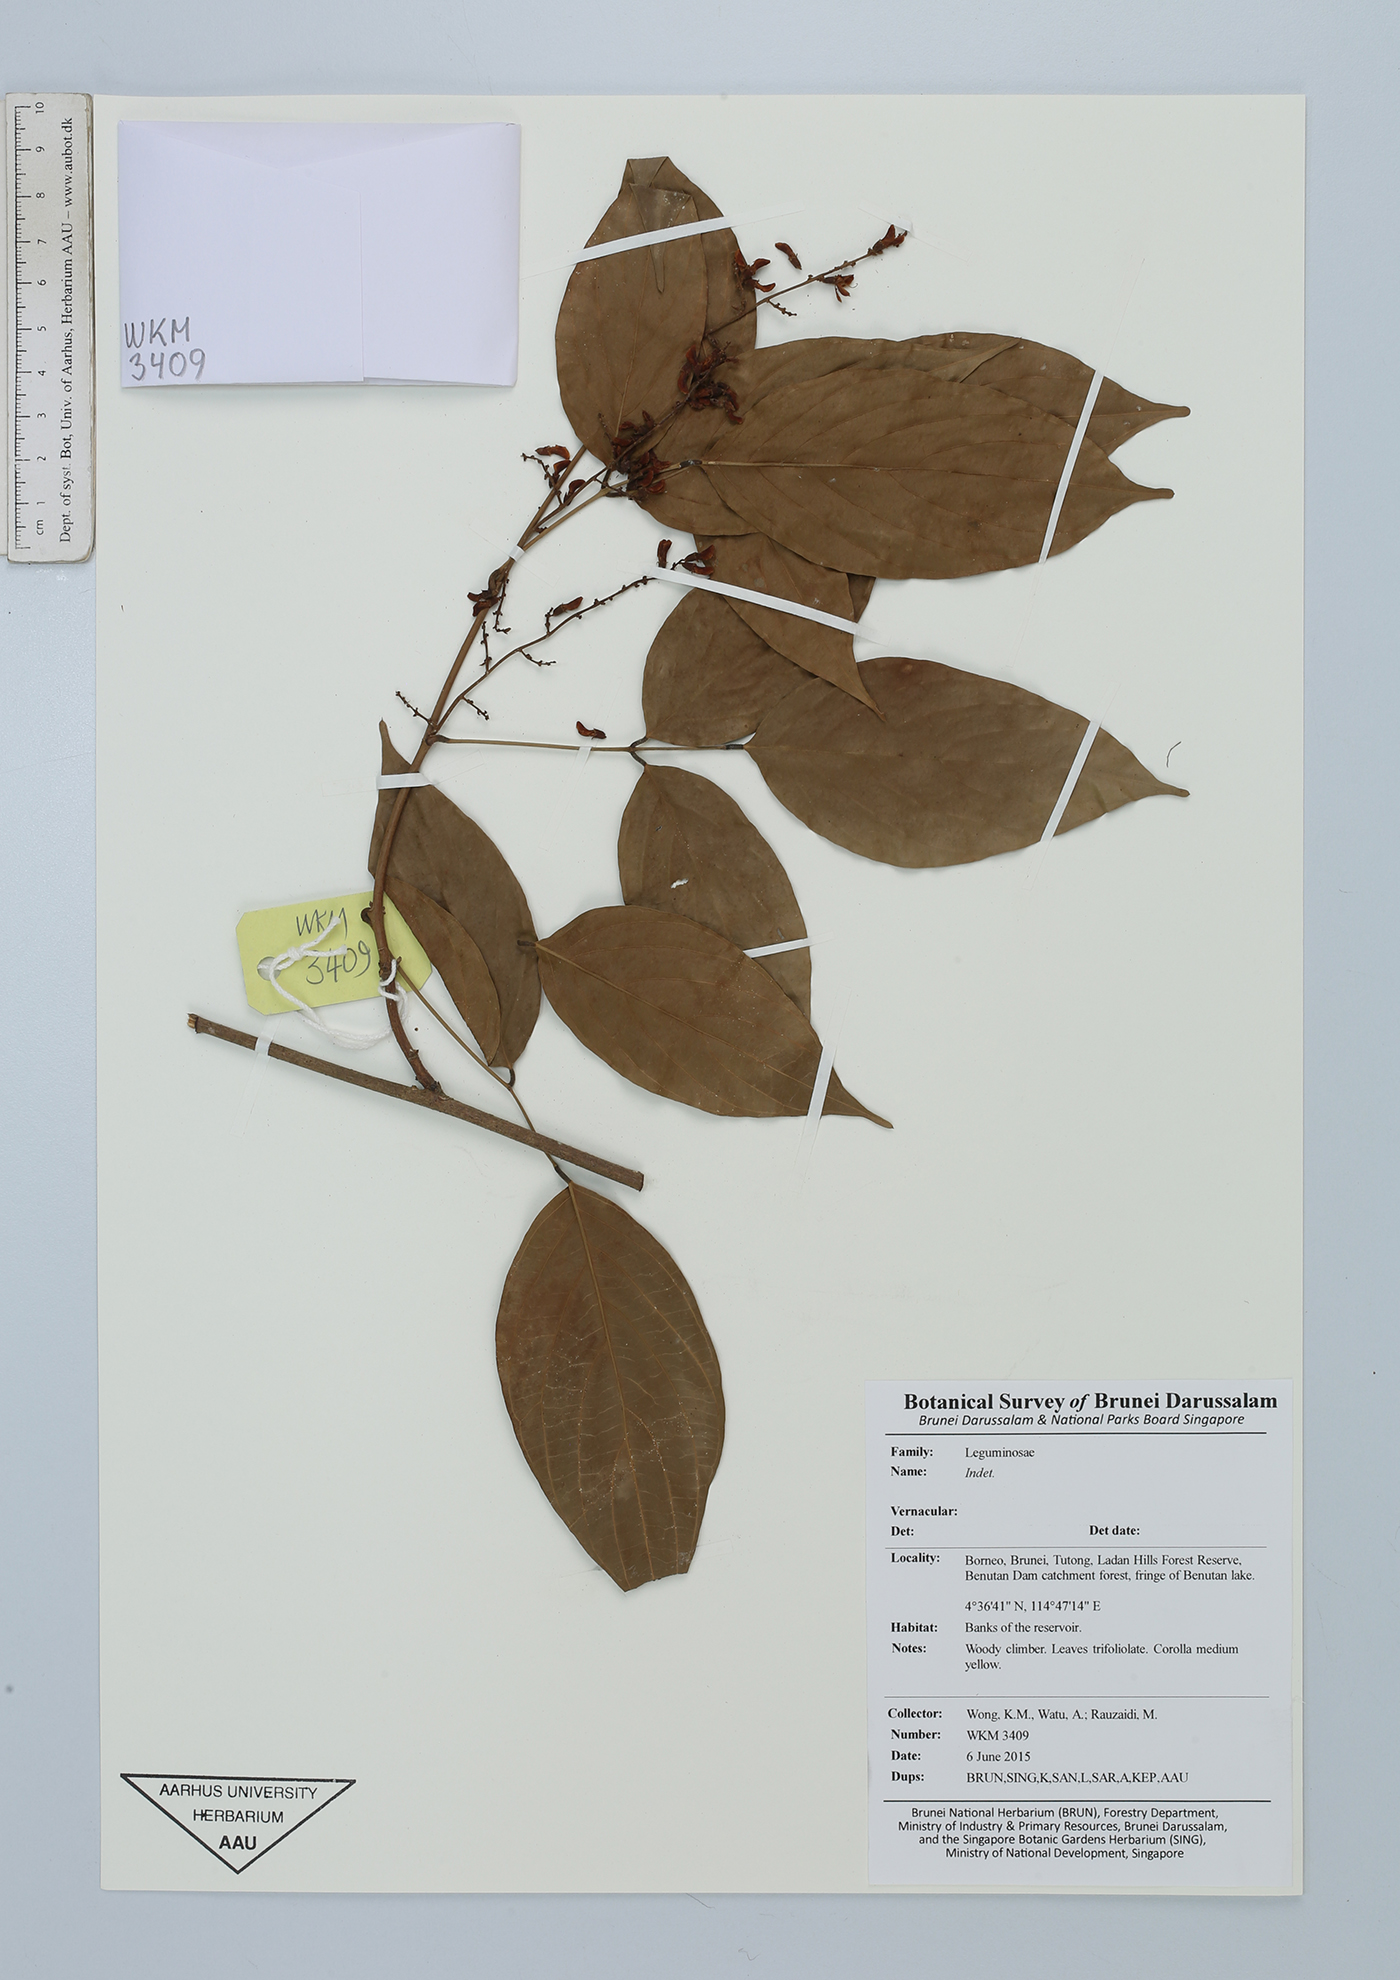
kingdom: Plantae
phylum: Tracheophyta
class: Magnoliopsida
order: Fabales
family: Fabaceae
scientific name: Fabaceae
